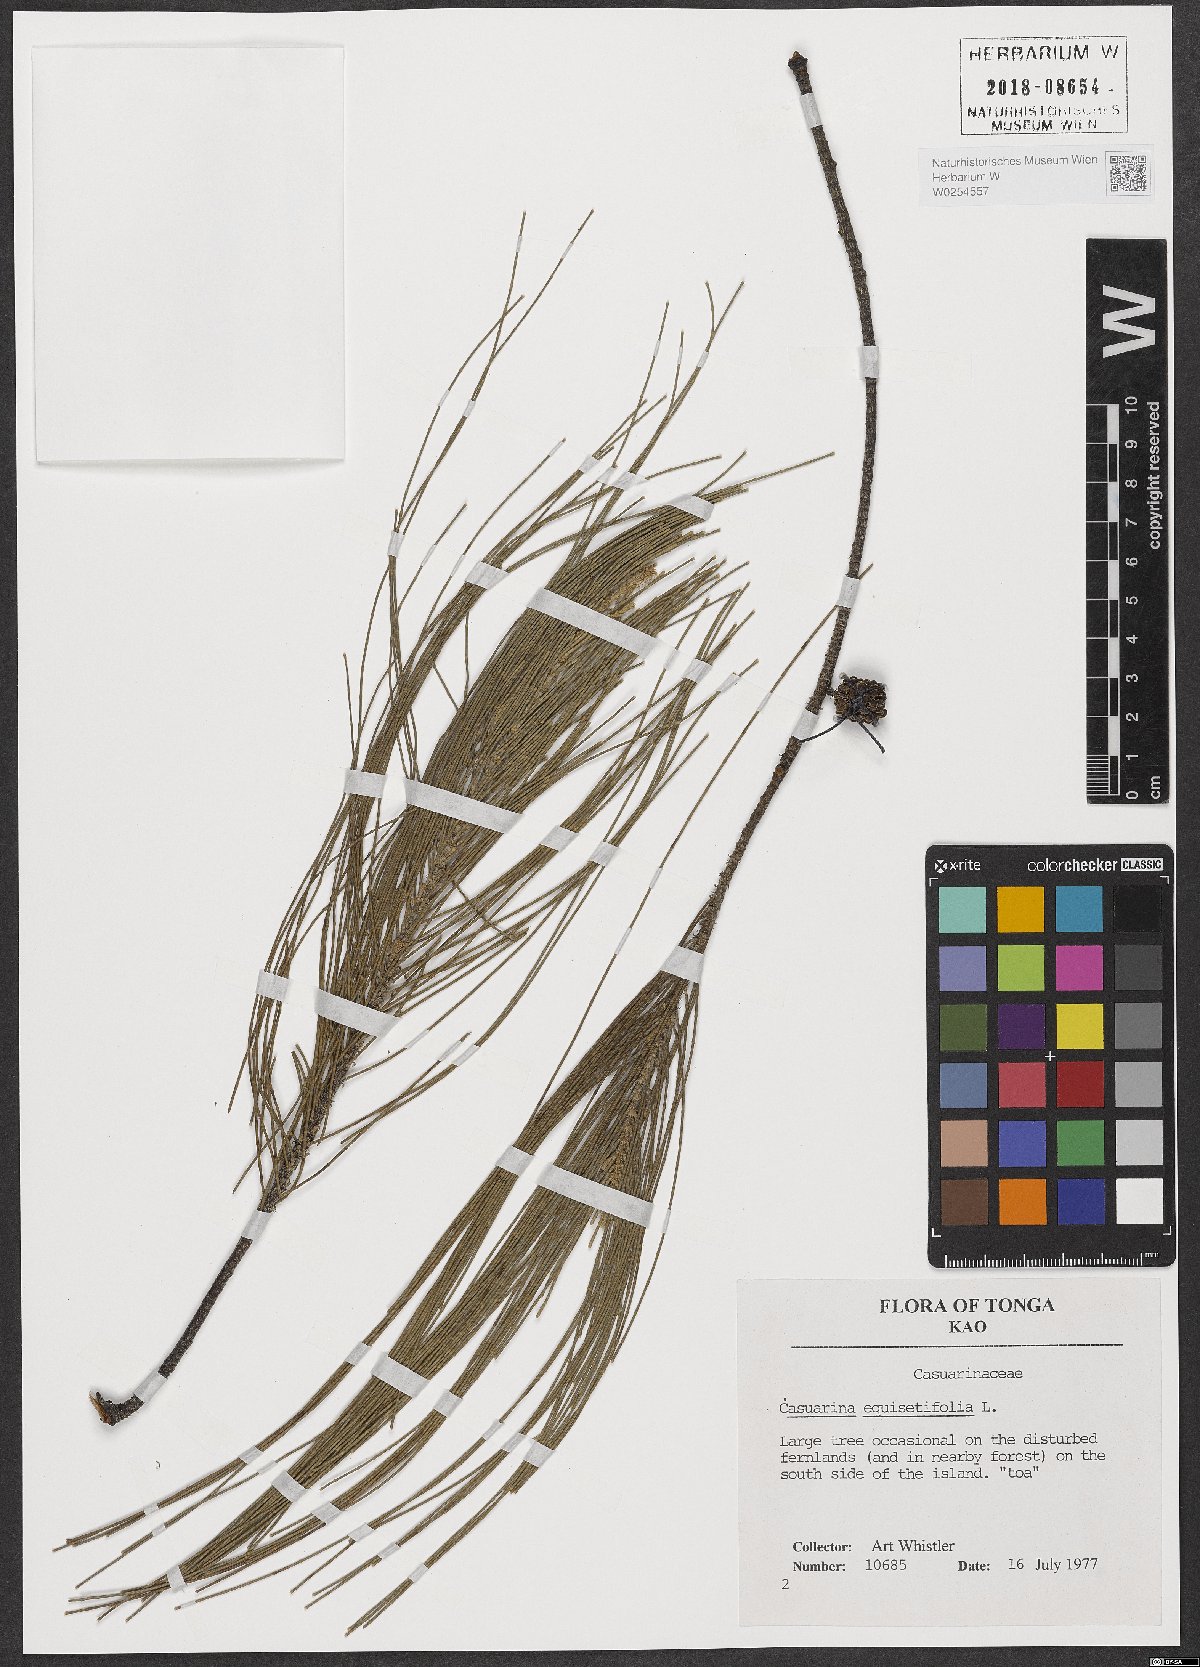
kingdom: Plantae
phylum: Tracheophyta
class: Magnoliopsida
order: Fagales
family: Casuarinaceae
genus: Casuarina
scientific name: Casuarina equisetifolia
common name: Beach sheoak
